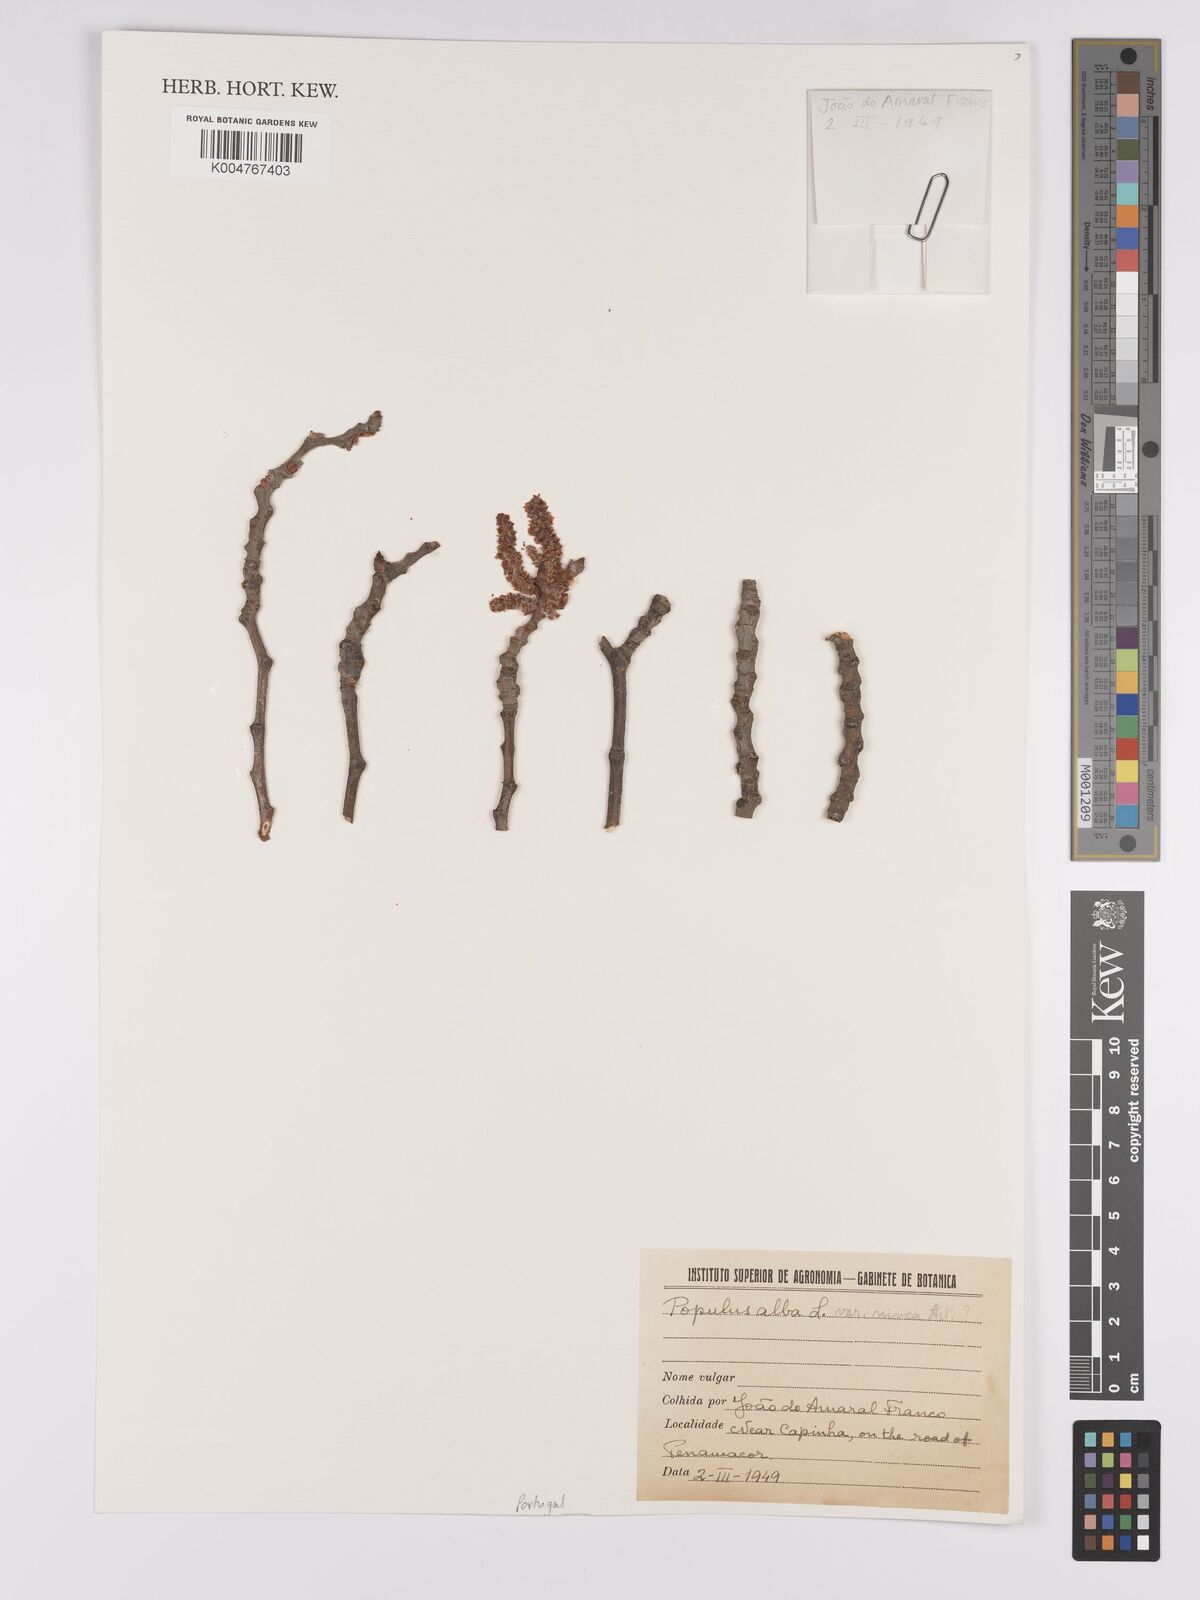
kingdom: Plantae
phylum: Tracheophyta
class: Magnoliopsida
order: Malpighiales
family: Salicaceae
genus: Populus
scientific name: Populus alba
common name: White poplar
